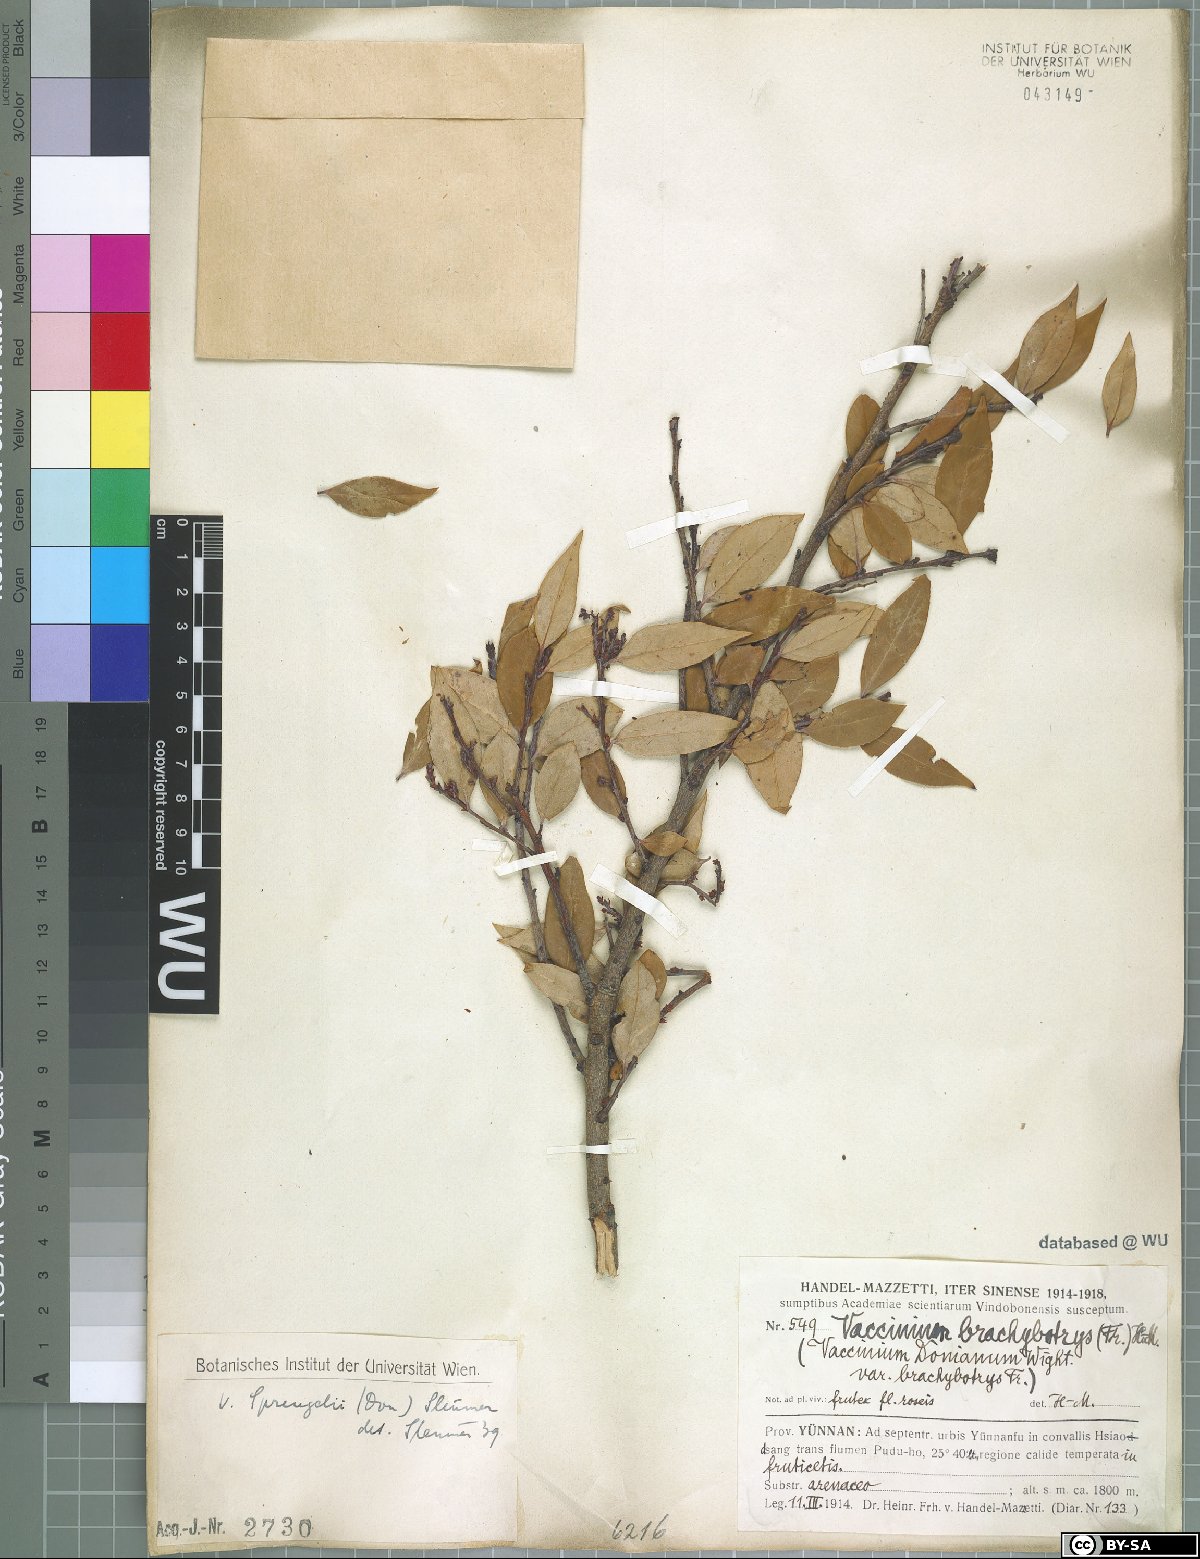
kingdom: Plantae
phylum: Tracheophyta
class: Magnoliopsida
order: Ericales
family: Ericaceae
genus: Vaccinium
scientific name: Vaccinium sprengelii
